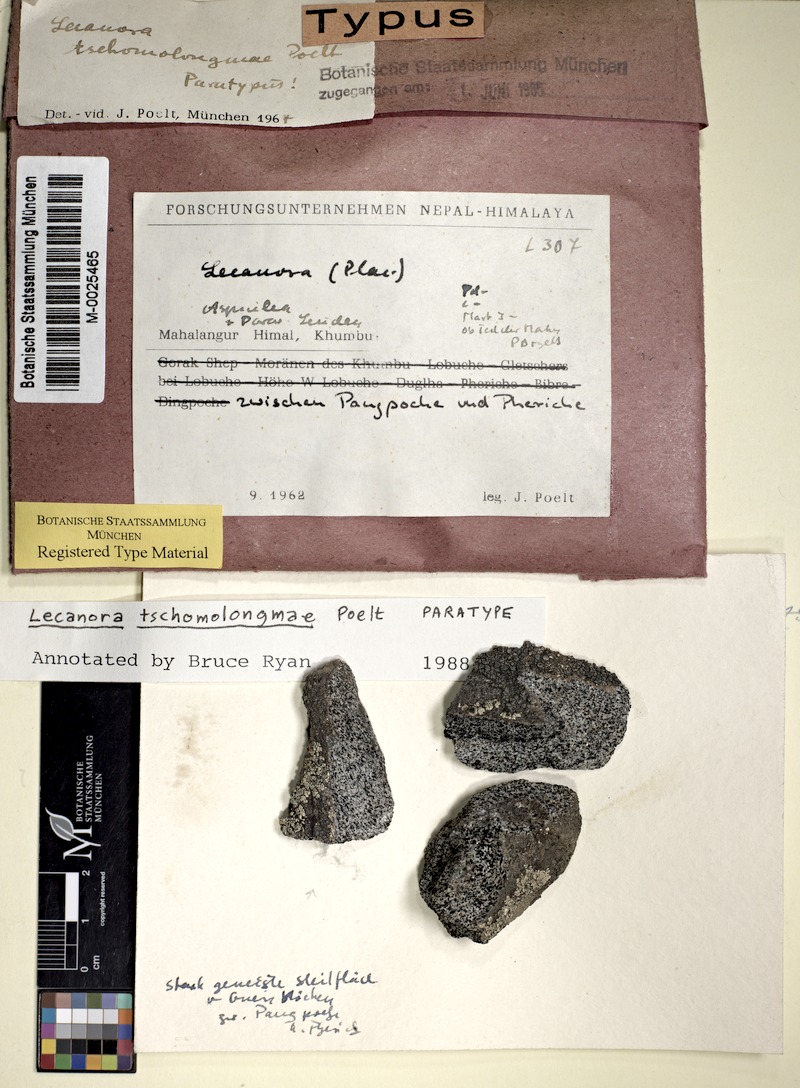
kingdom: Fungi
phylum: Ascomycota
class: Lecanoromycetes
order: Lecanorales
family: Lecanoraceae
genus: Lecanora
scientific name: Lecanora tschomolongmae
